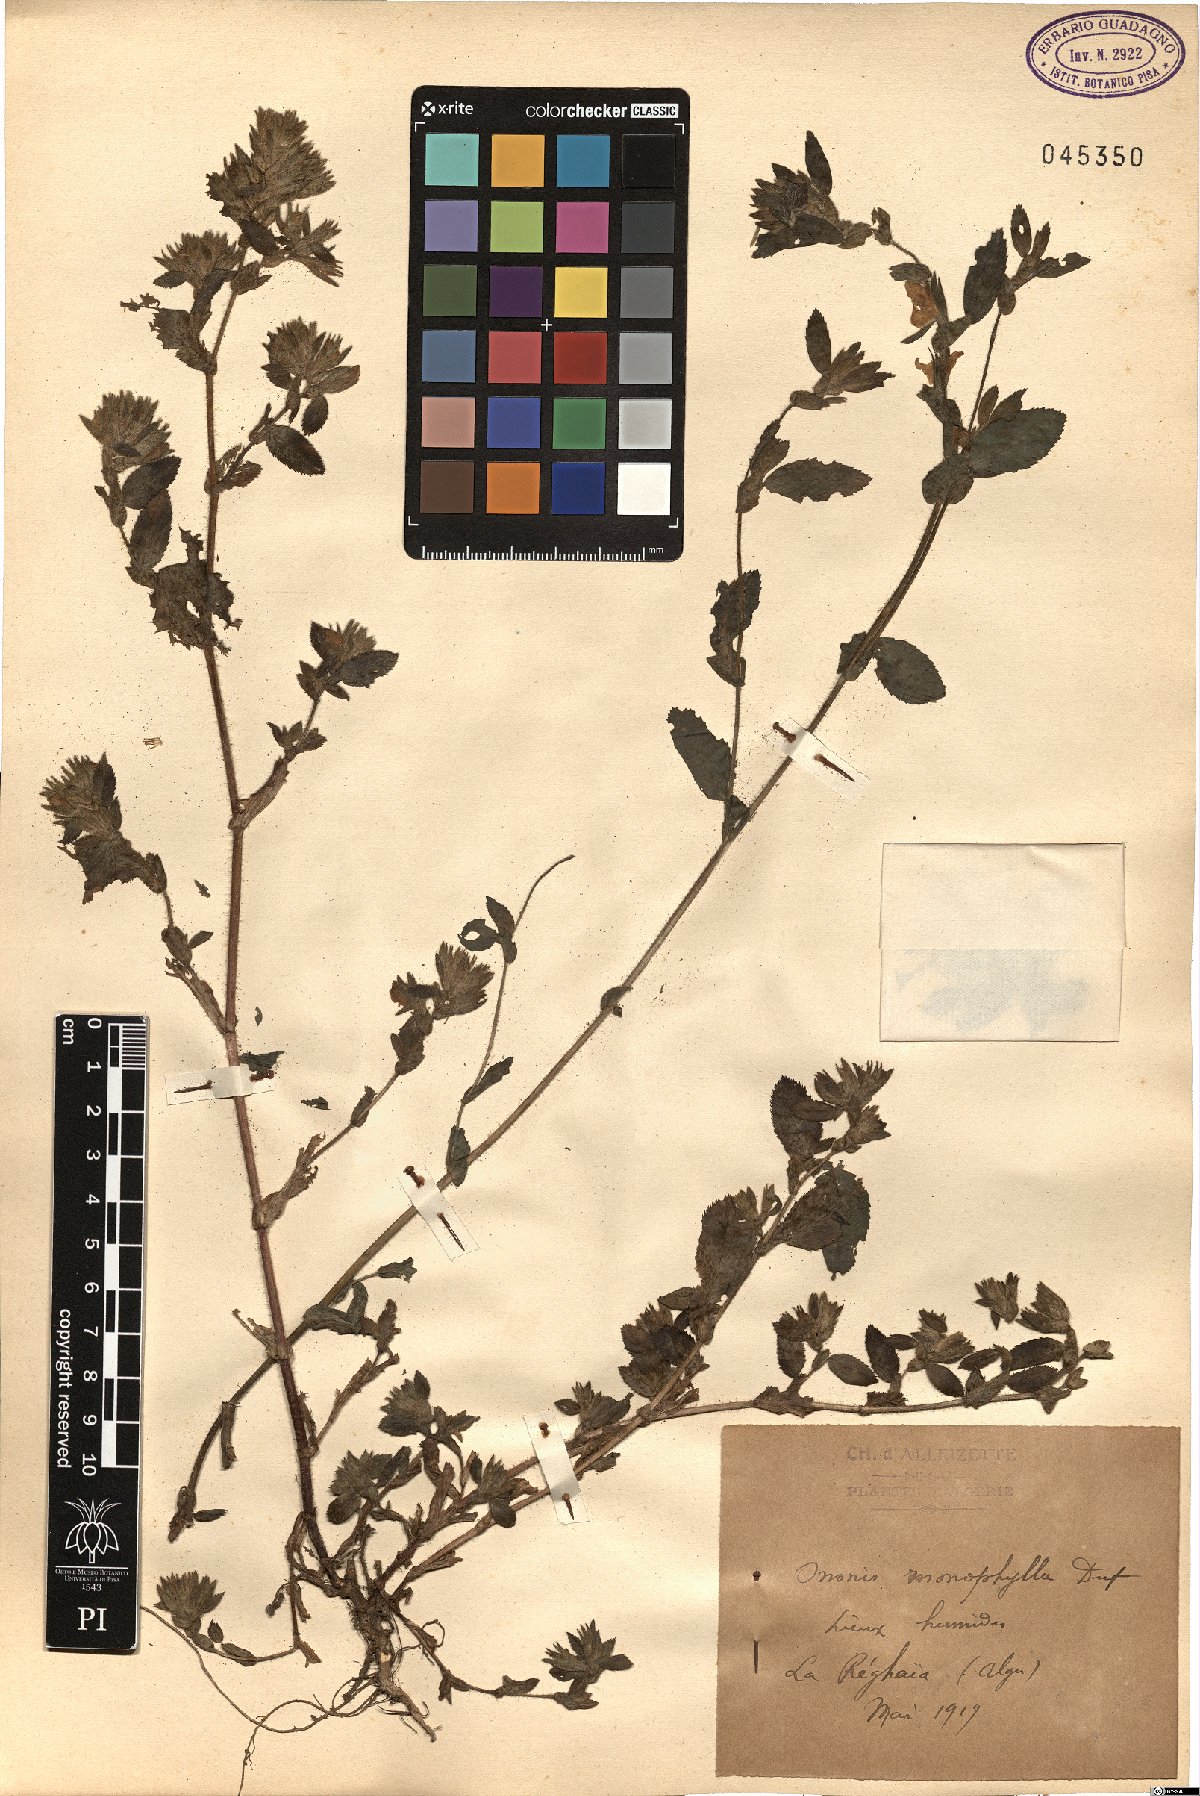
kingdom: Plantae
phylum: Tracheophyta
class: Magnoliopsida
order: Fabales
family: Fabaceae
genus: Ononis
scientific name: Ononis alba
